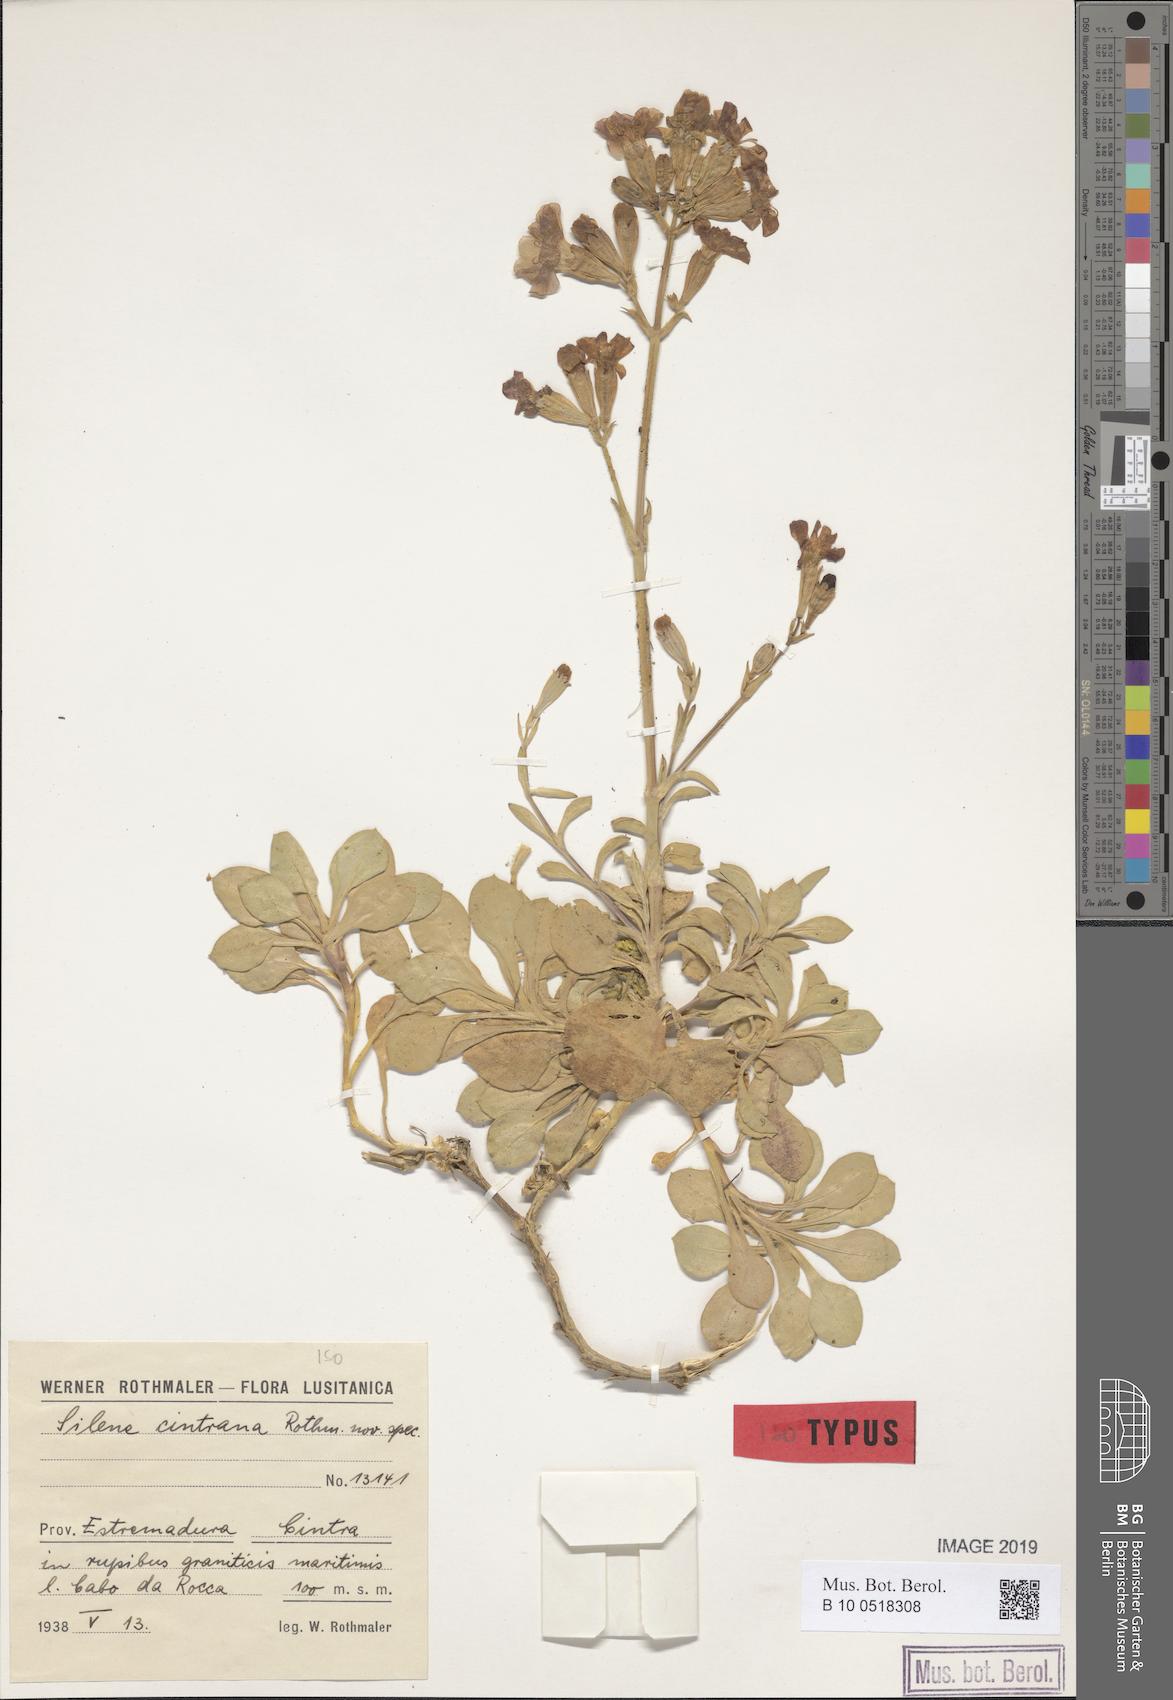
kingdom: Plantae
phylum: Tracheophyta
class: Magnoliopsida
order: Caryophyllales
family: Caryophyllaceae
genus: Silene
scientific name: Silene cintrana
